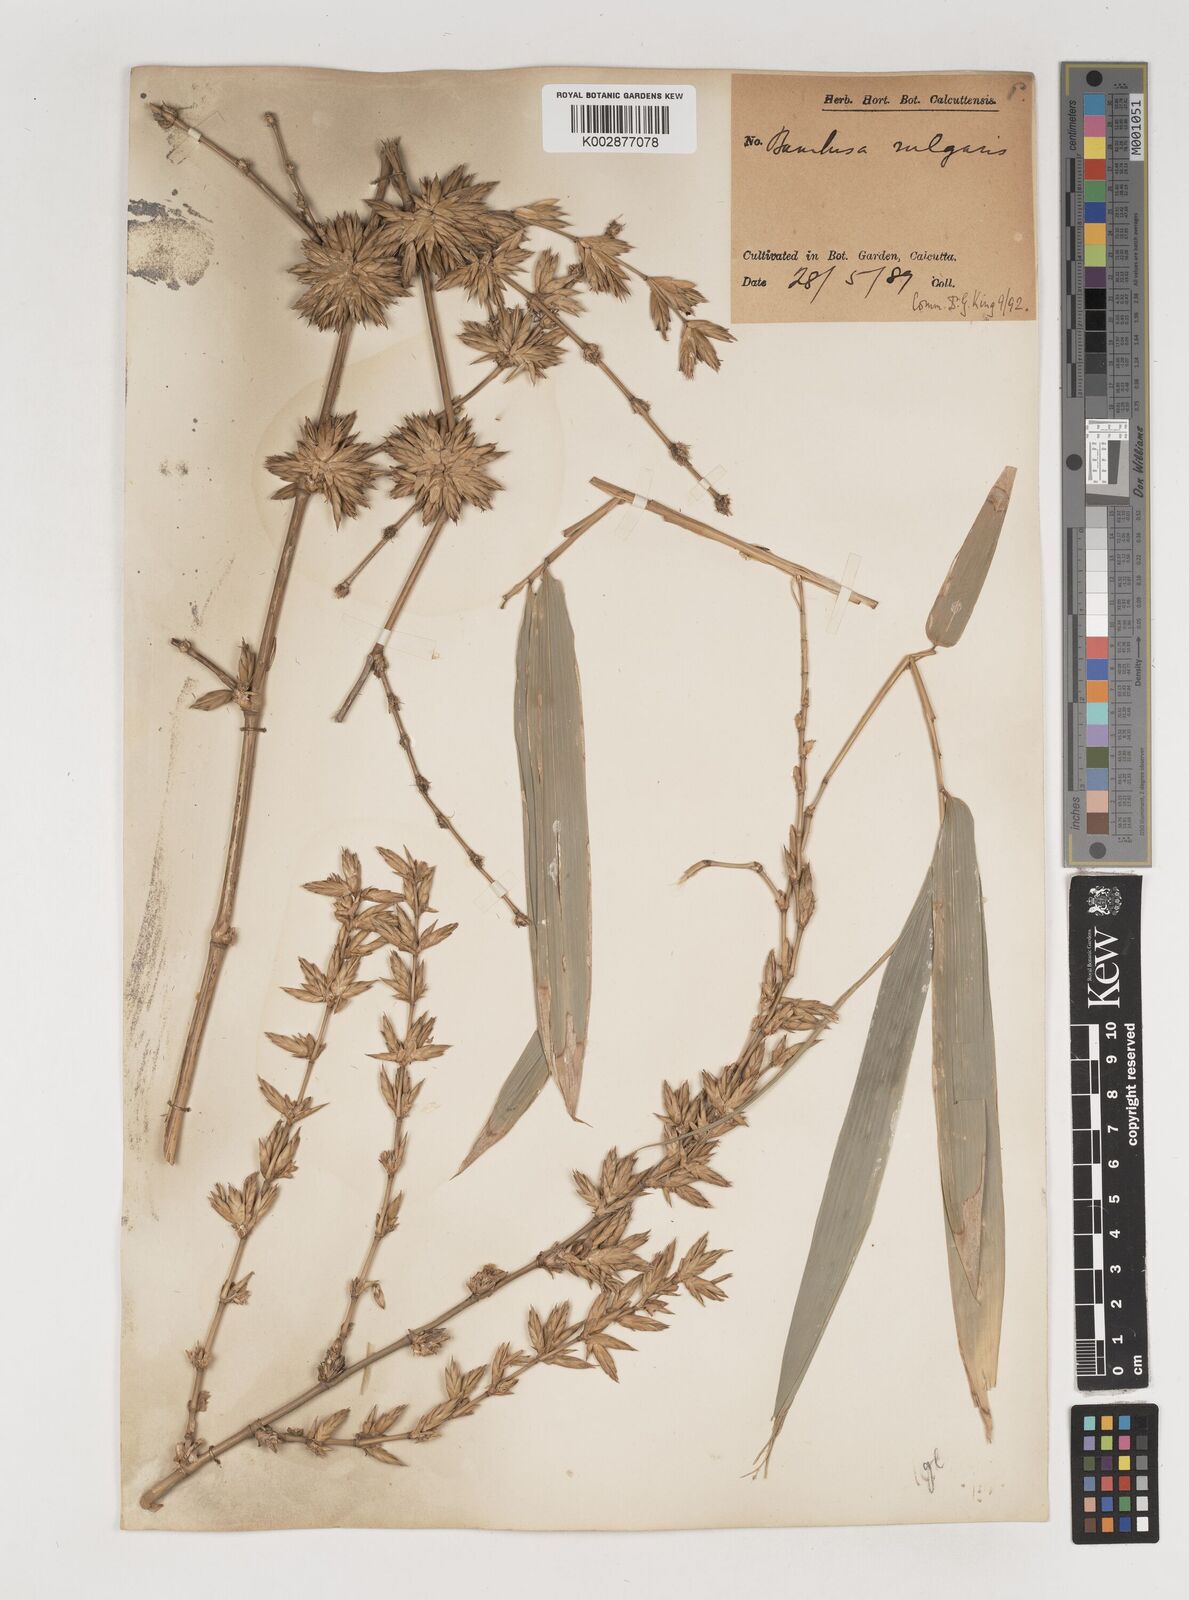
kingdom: Plantae
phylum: Tracheophyta
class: Liliopsida
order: Poales
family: Poaceae
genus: Bambusa
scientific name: Bambusa balcooa
